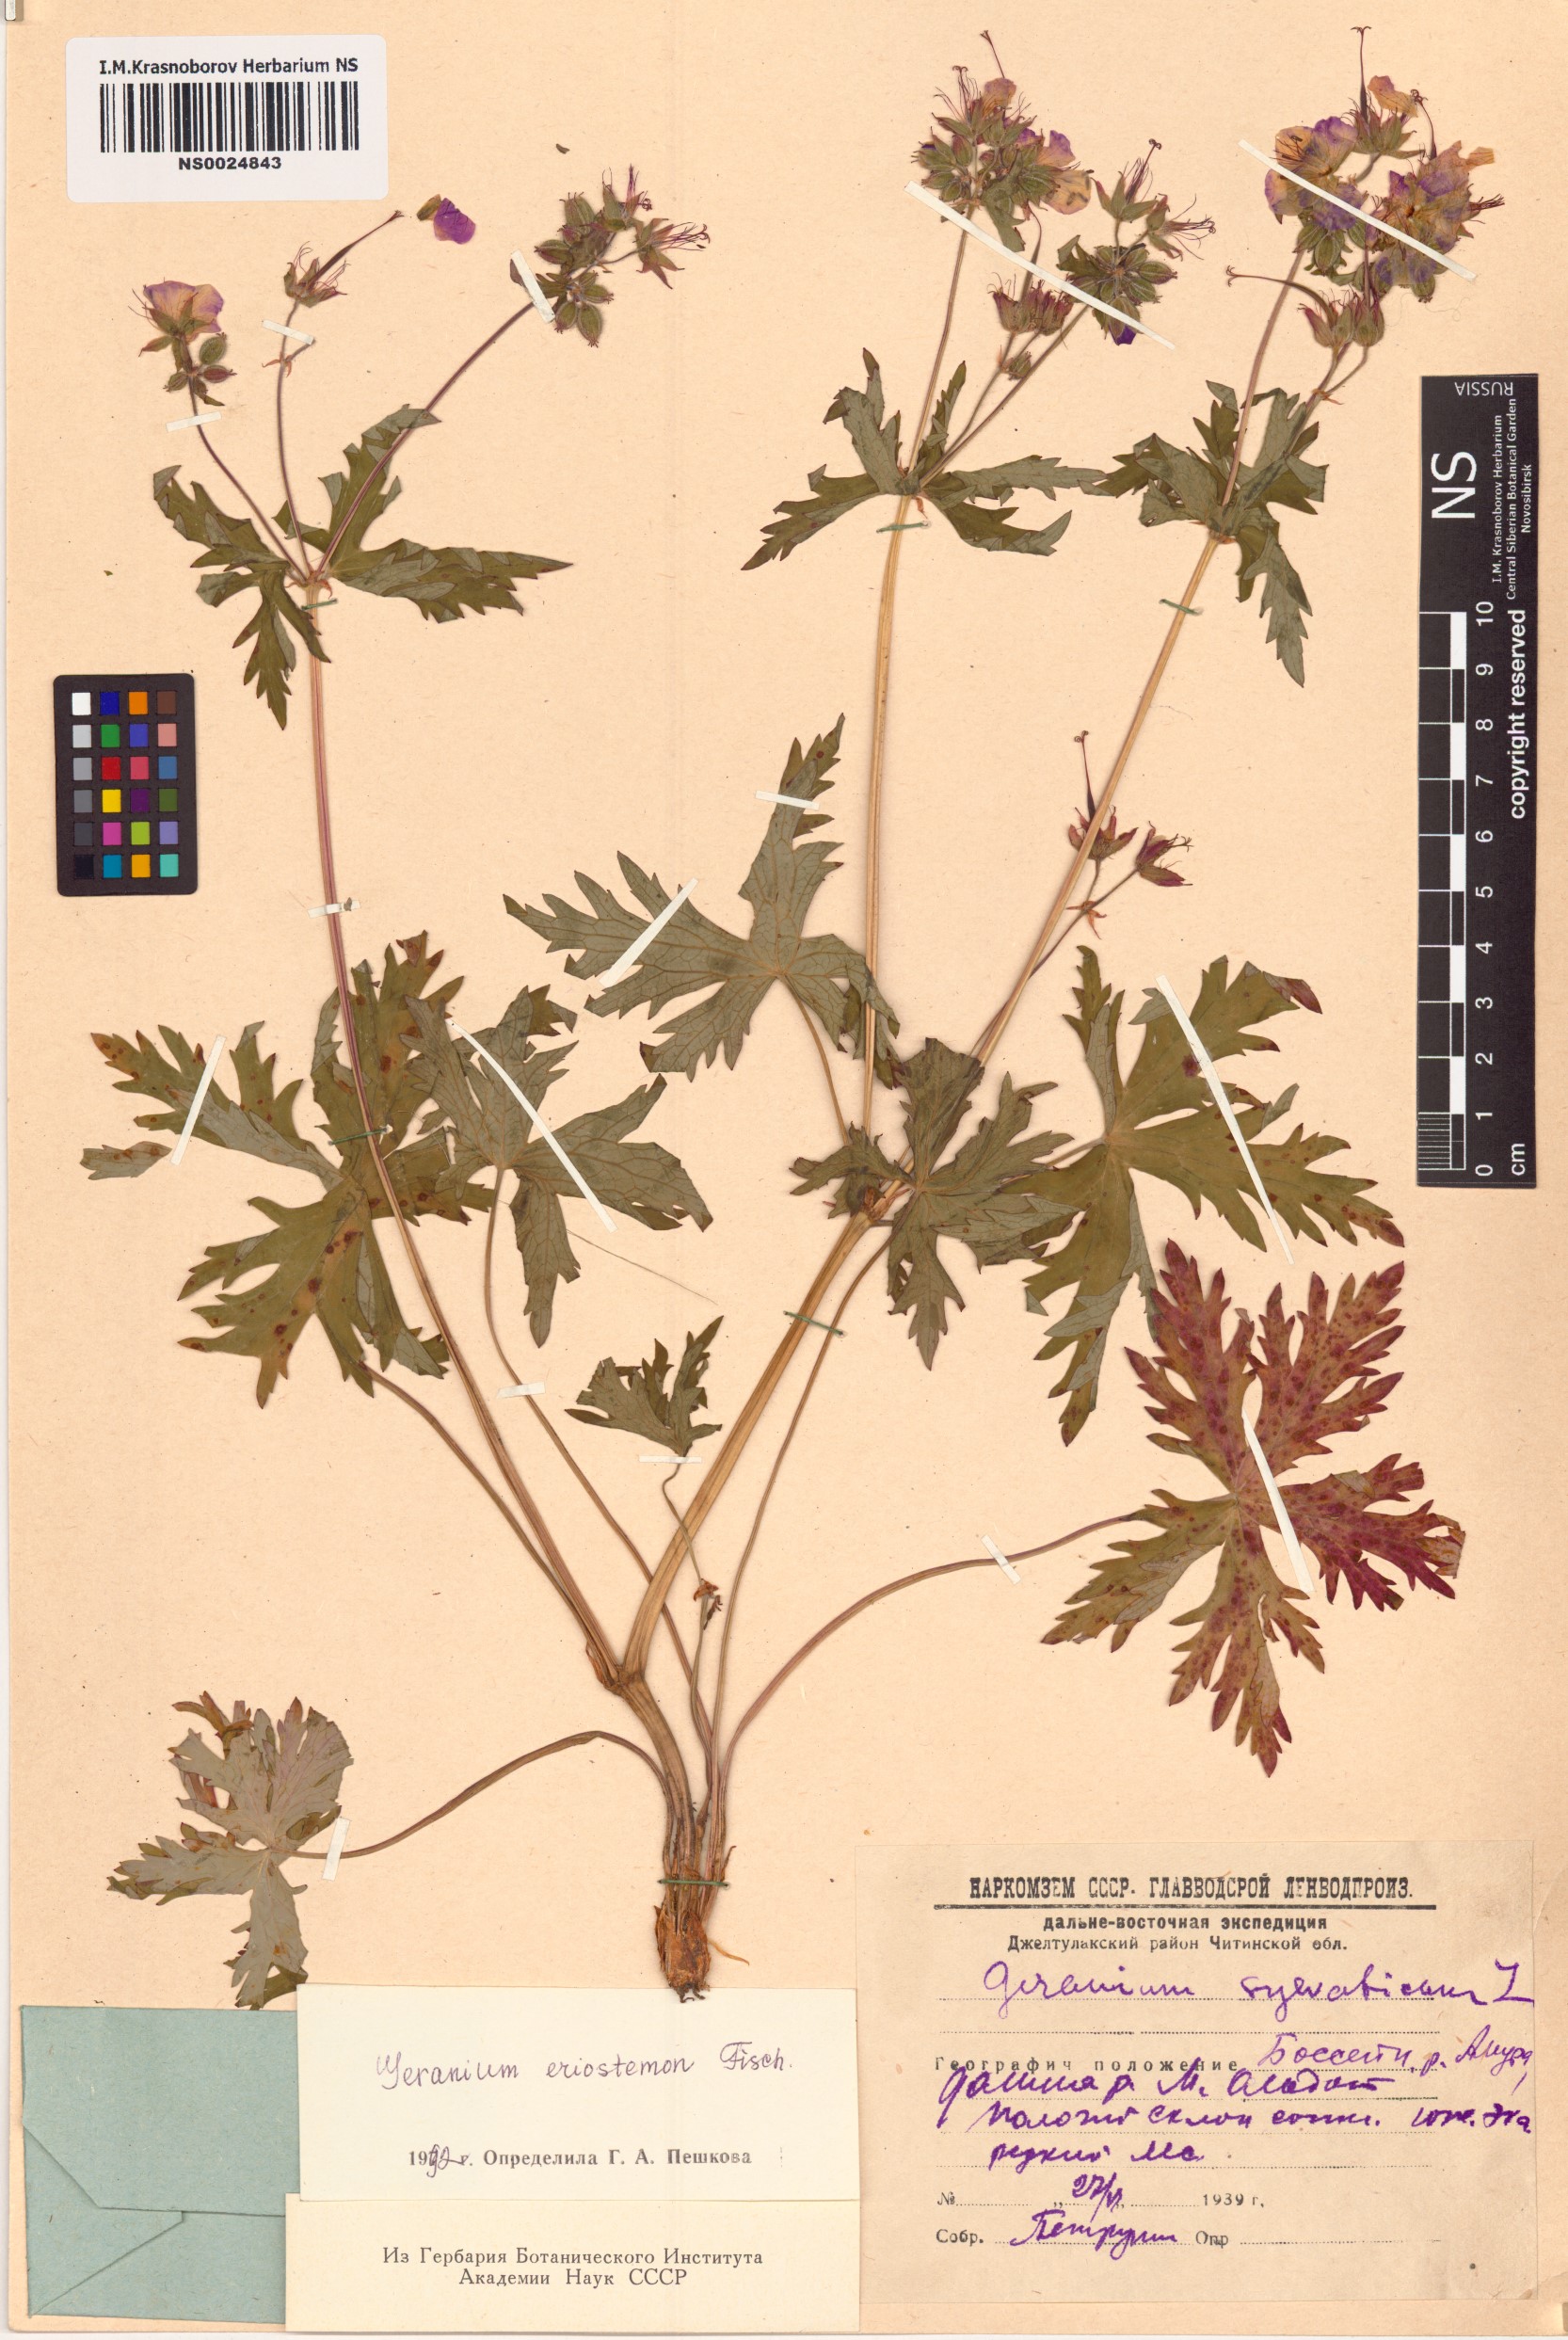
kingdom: Plantae
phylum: Tracheophyta
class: Magnoliopsida
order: Geraniales
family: Geraniaceae
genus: Geranium
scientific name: Geranium platyanthum
